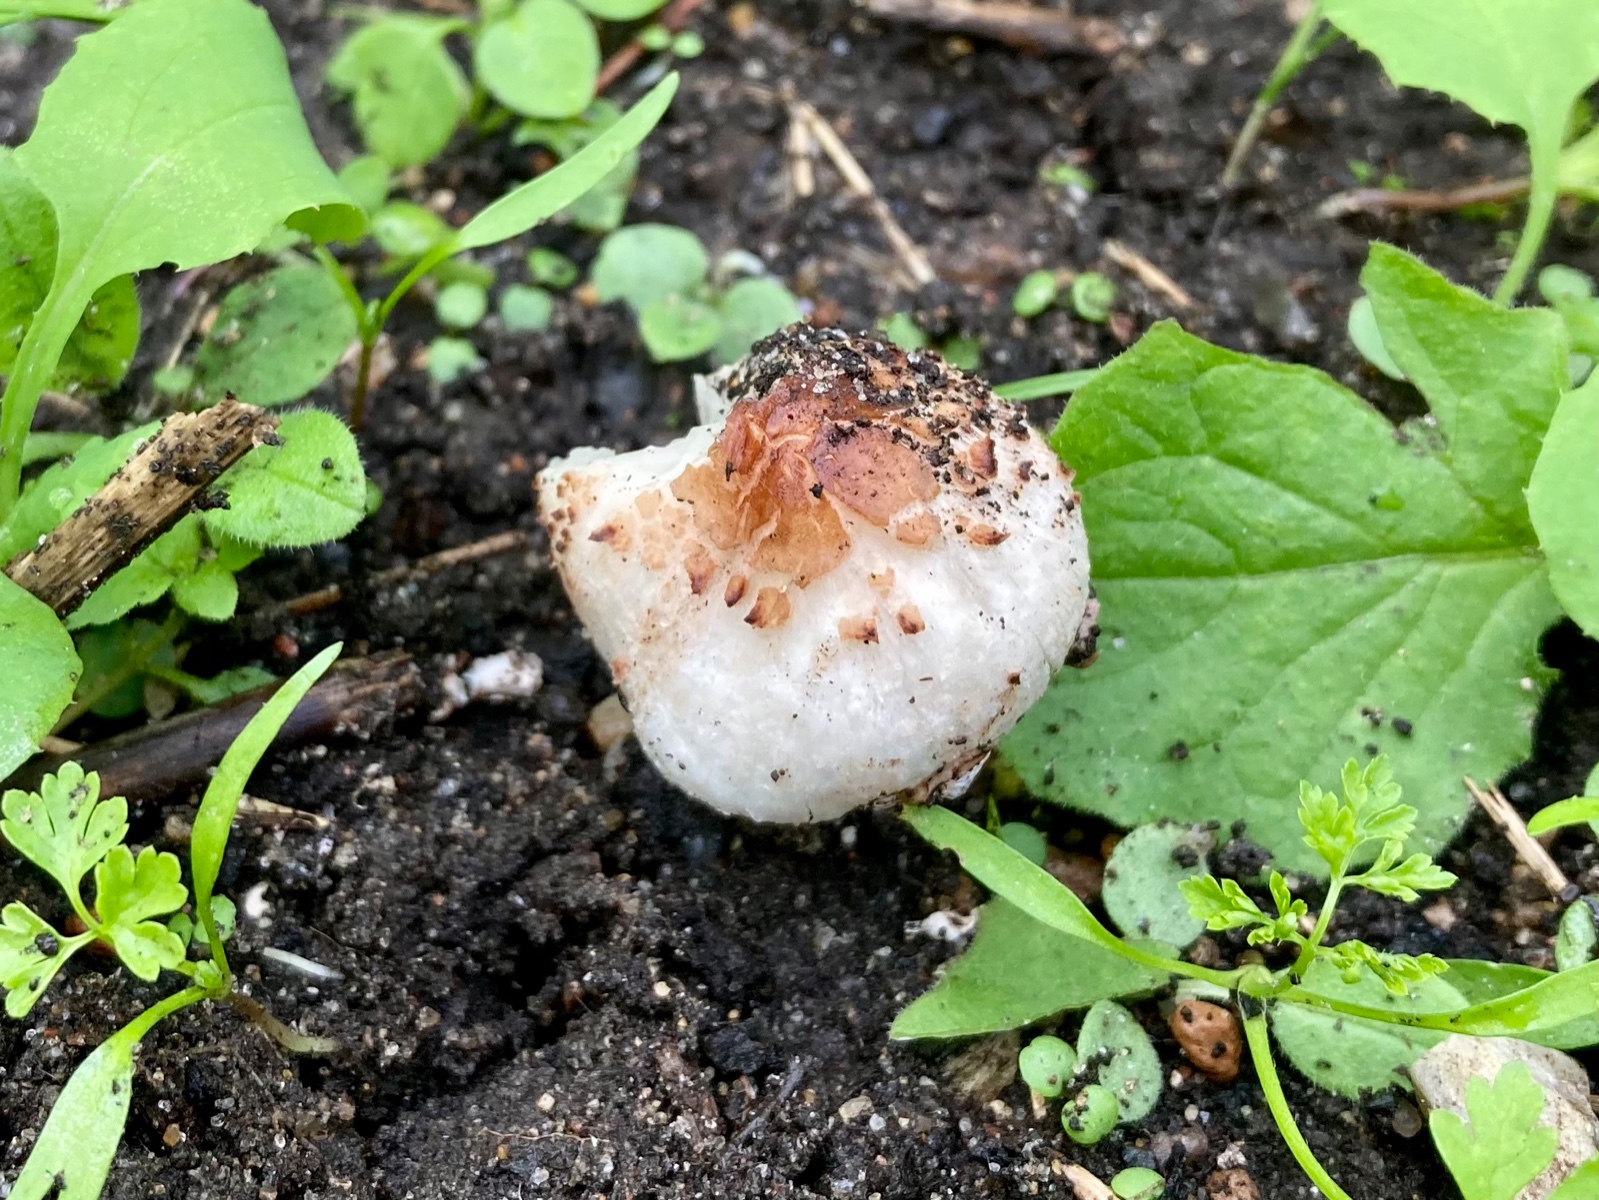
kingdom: Fungi
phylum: Basidiomycota
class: Agaricomycetes
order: Agaricales
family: Agaricaceae
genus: Lepiota
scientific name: Lepiota lilacea
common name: lillabrun parasolhat
